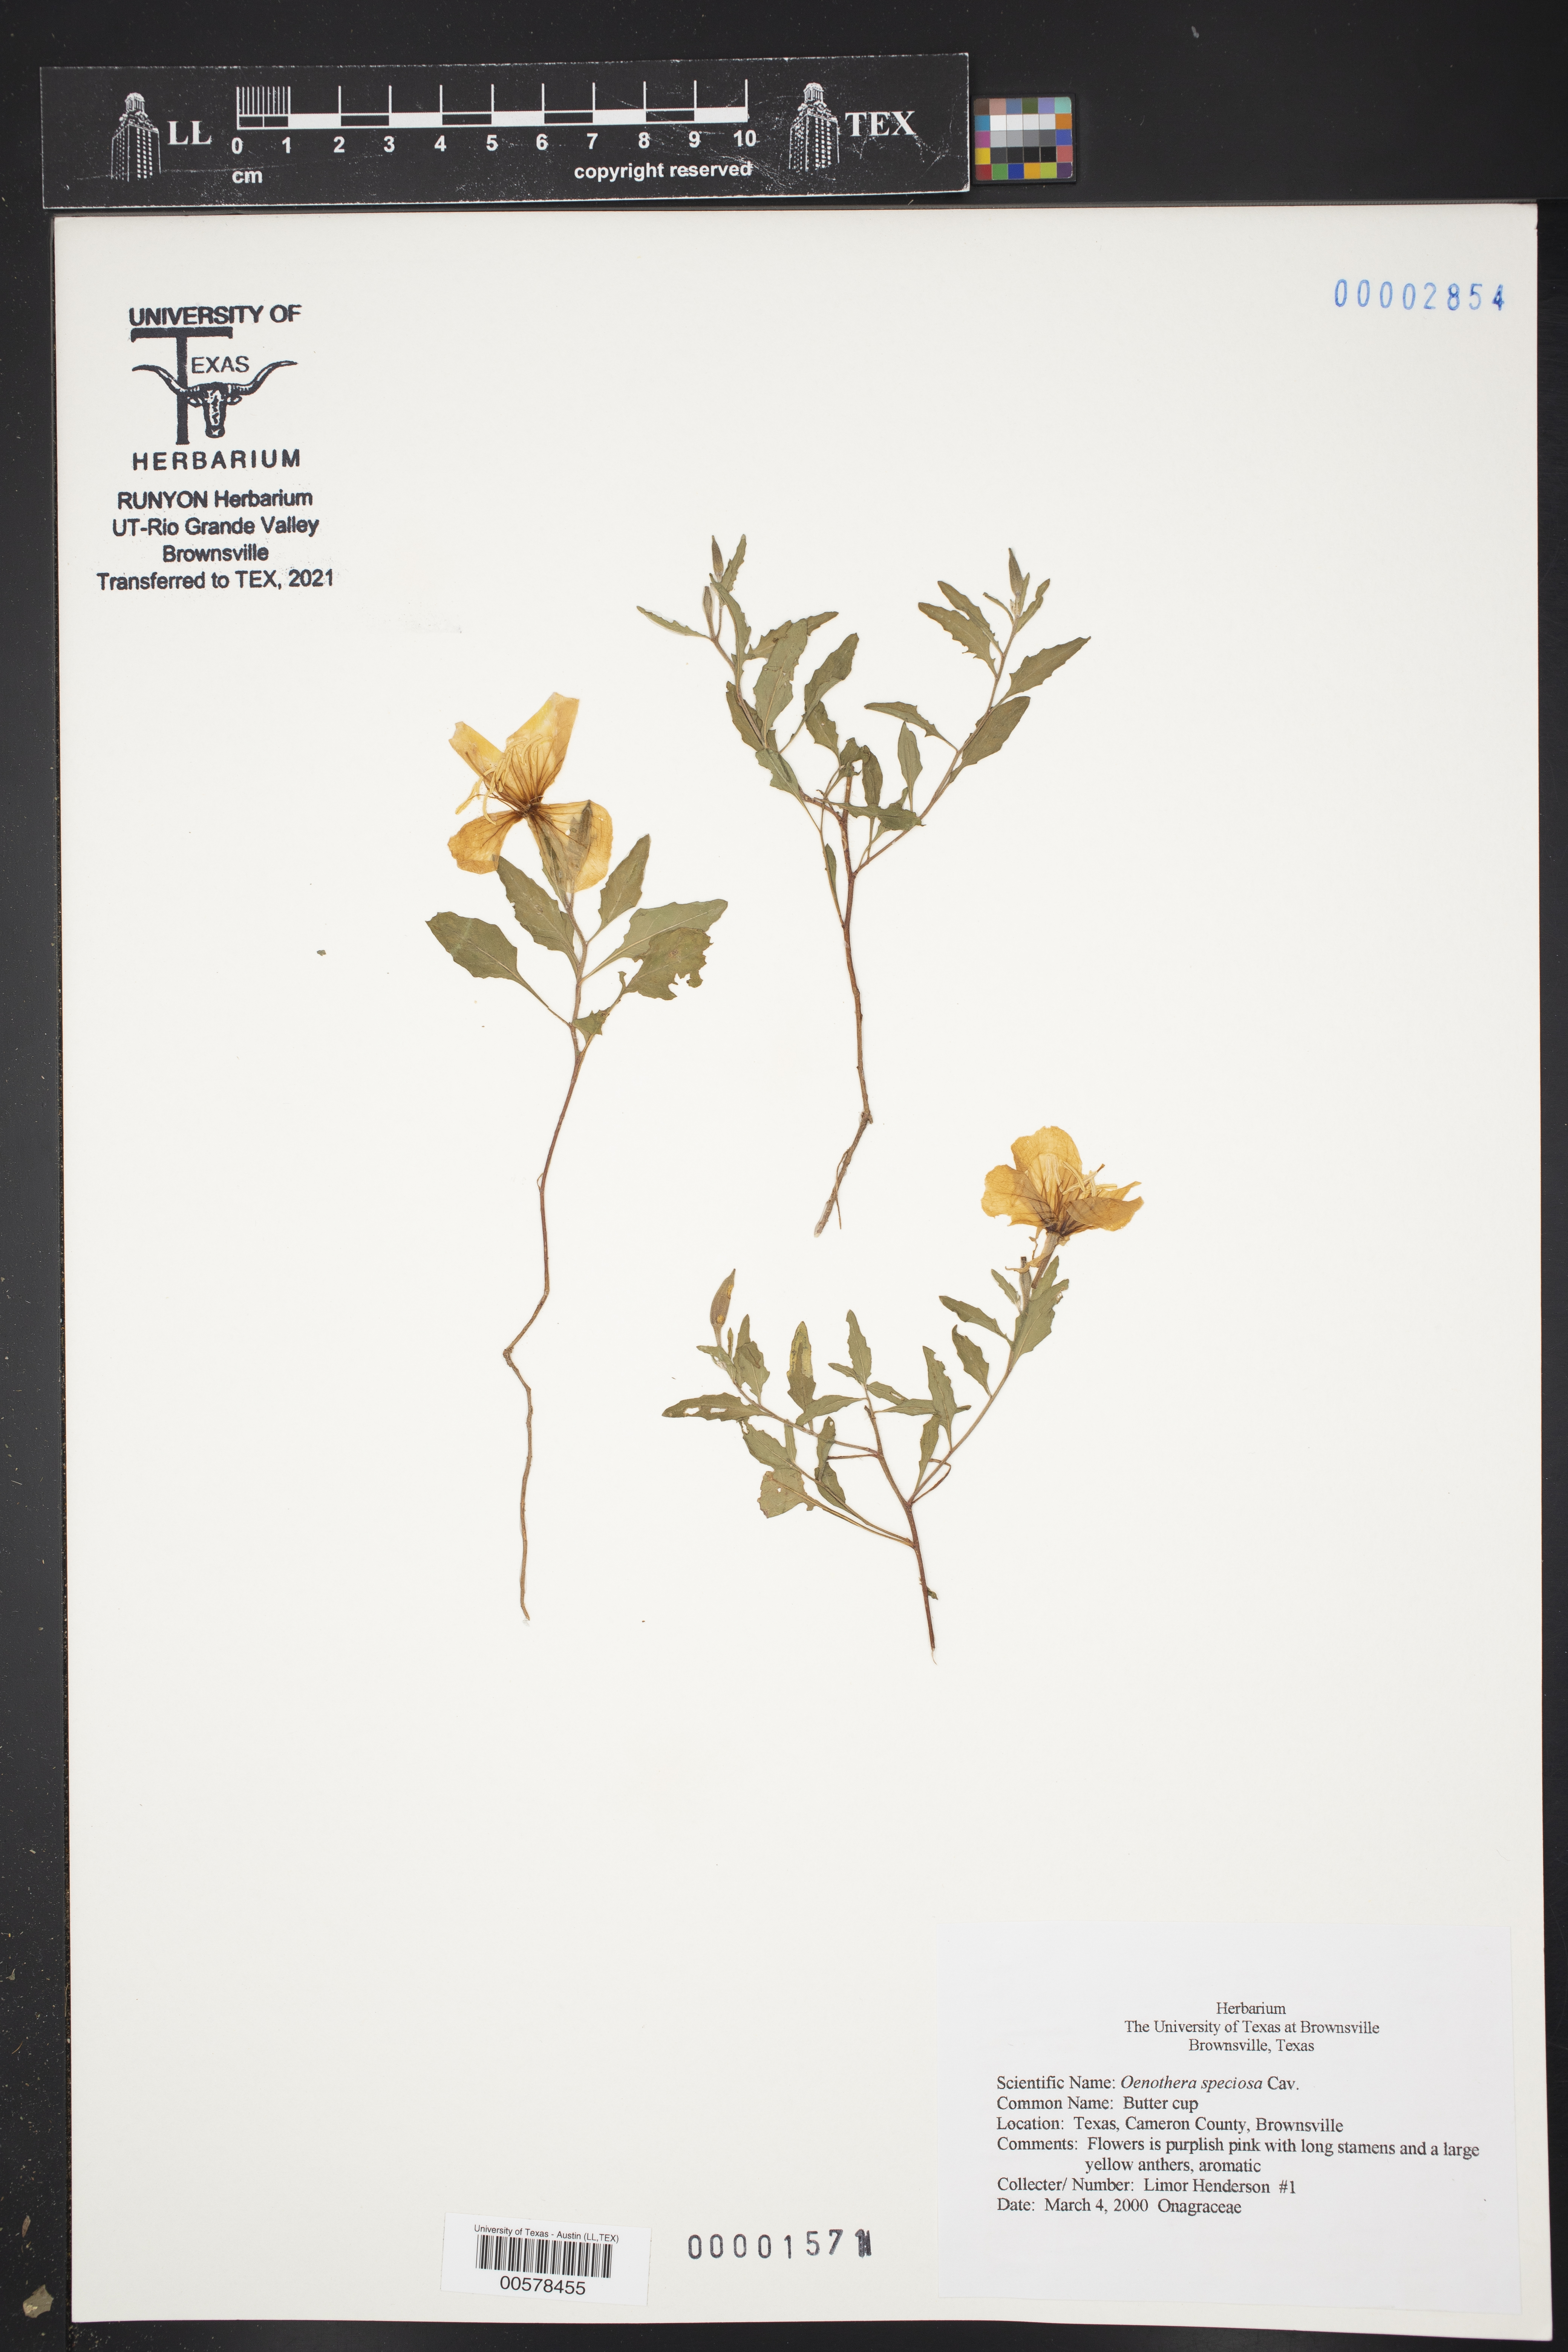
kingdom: Plantae
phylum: Tracheophyta
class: Magnoliopsida
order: Myrtales
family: Onagraceae
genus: Oenothera
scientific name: Oenothera speciosa
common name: White evening-primrose
